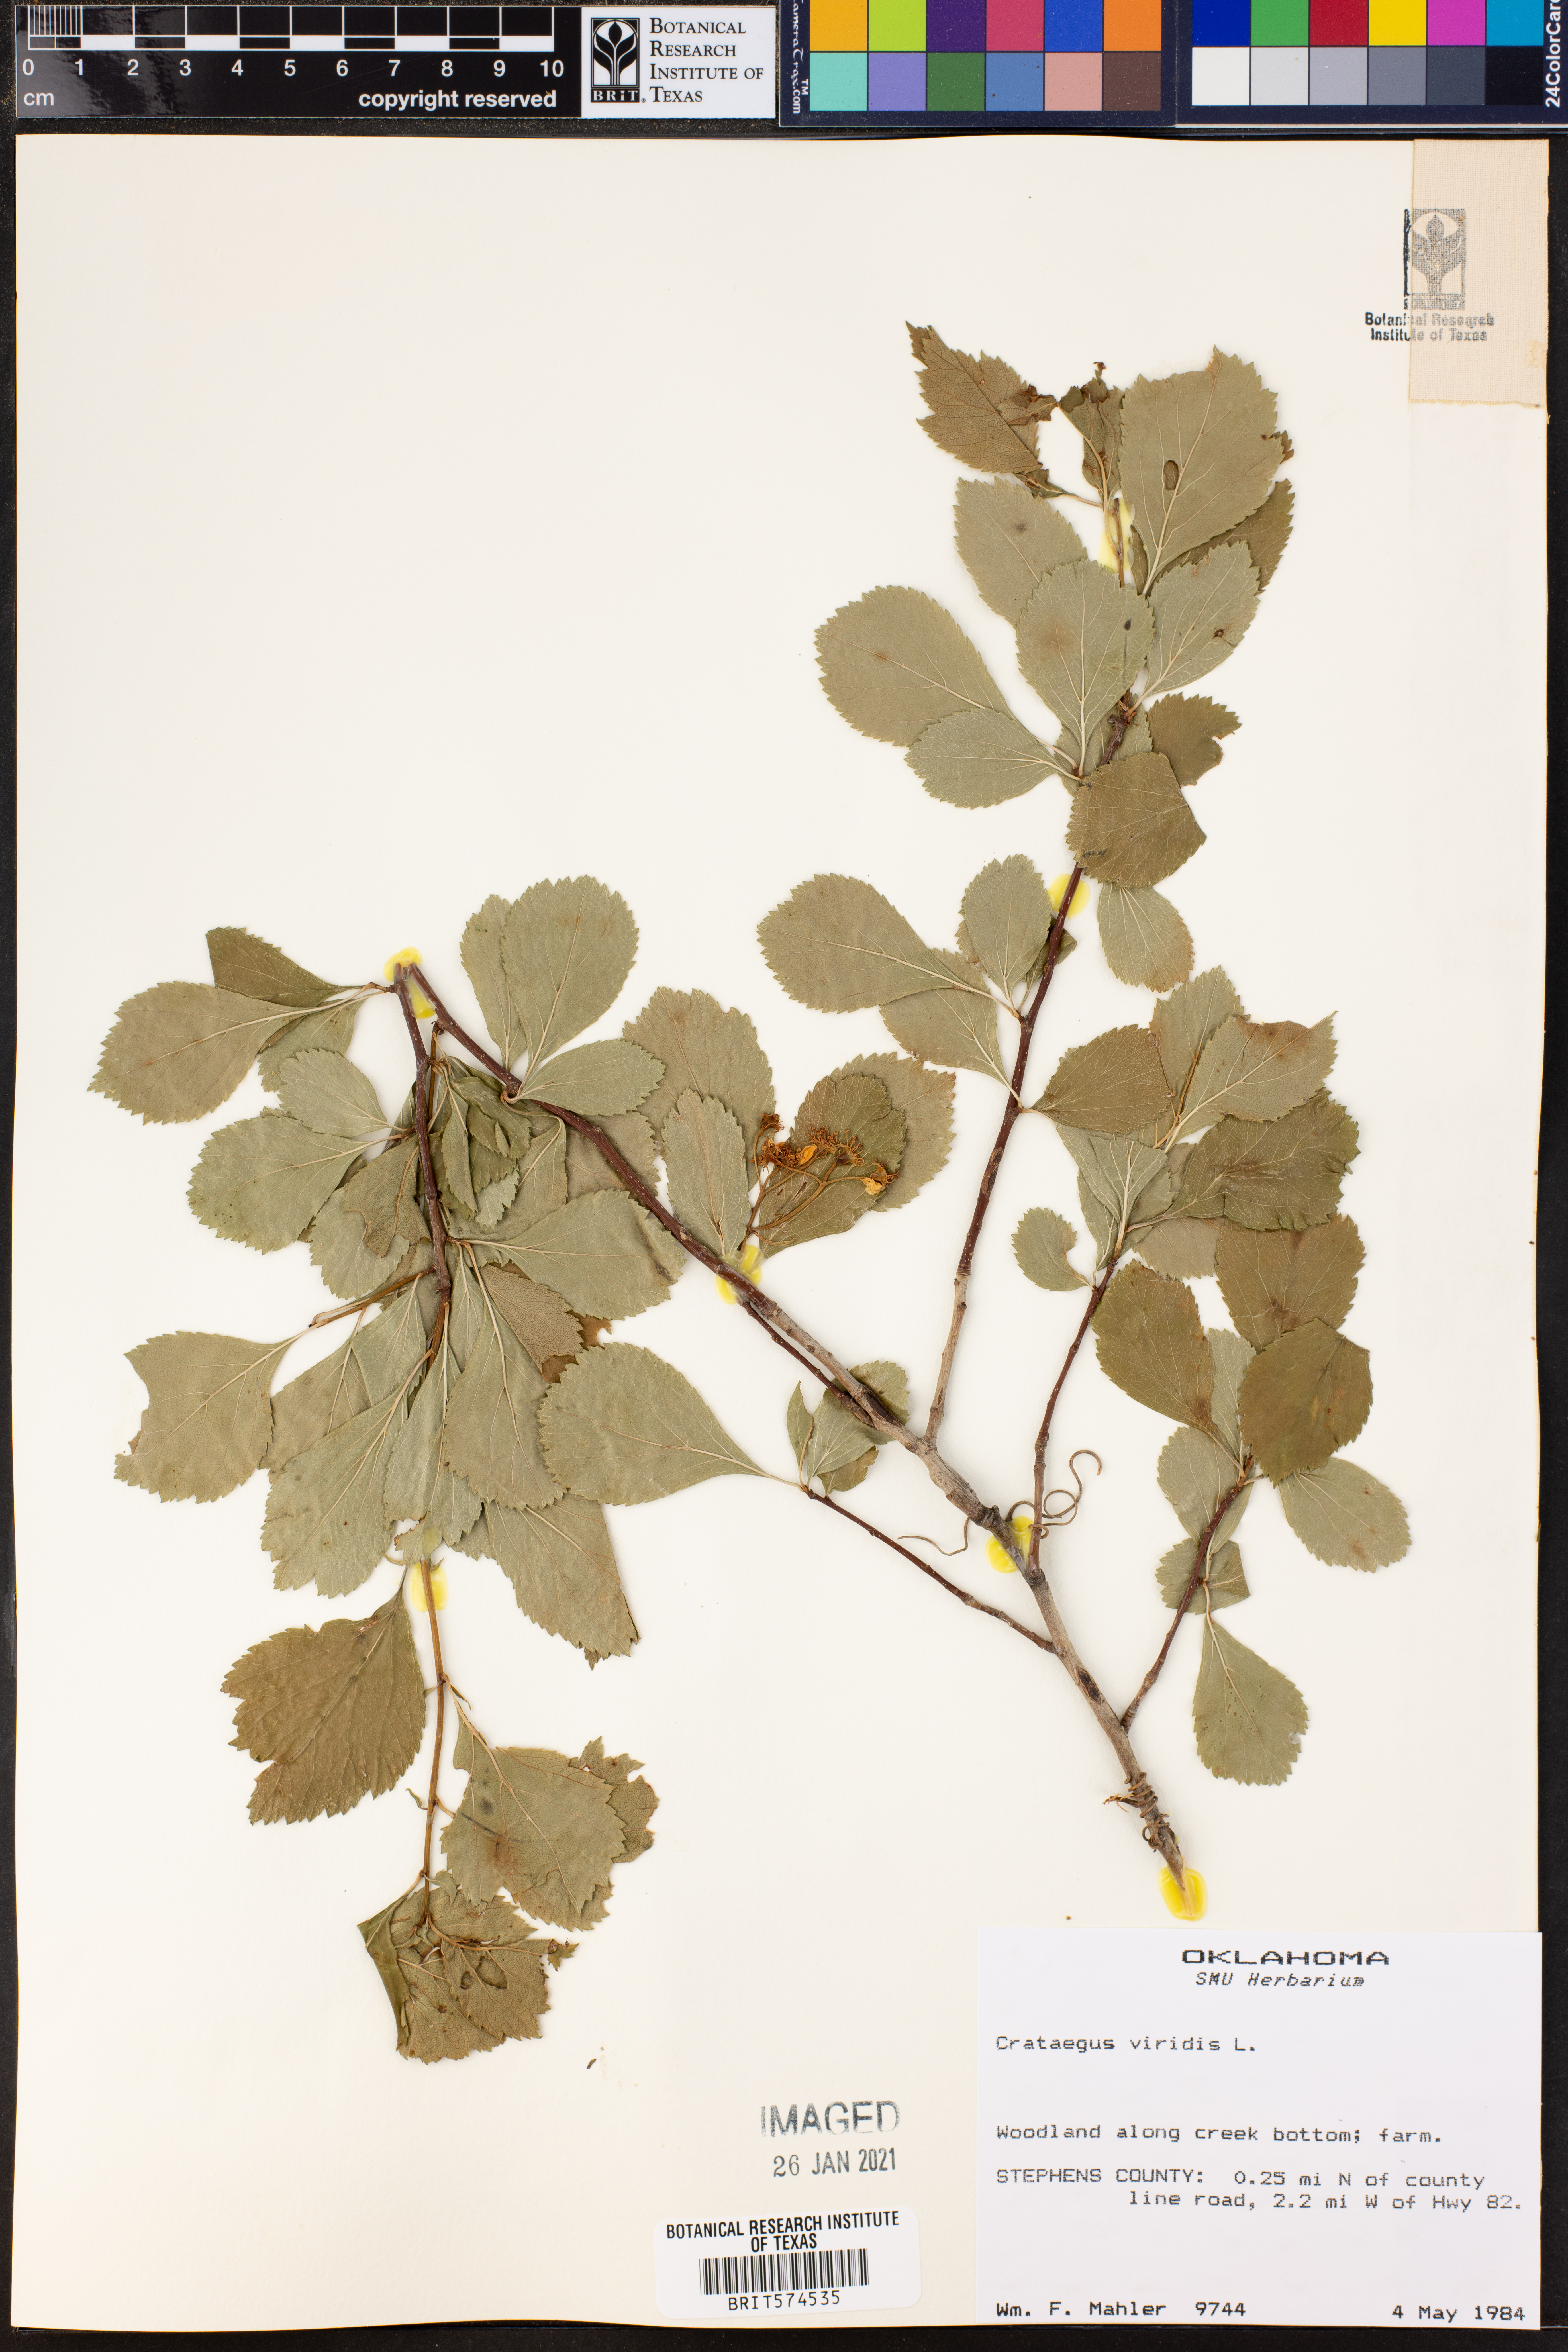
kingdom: Plantae
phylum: Tracheophyta
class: Magnoliopsida
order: Rosales
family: Rosaceae
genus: Crataegus
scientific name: Crataegus viridis
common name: Southernthorn
